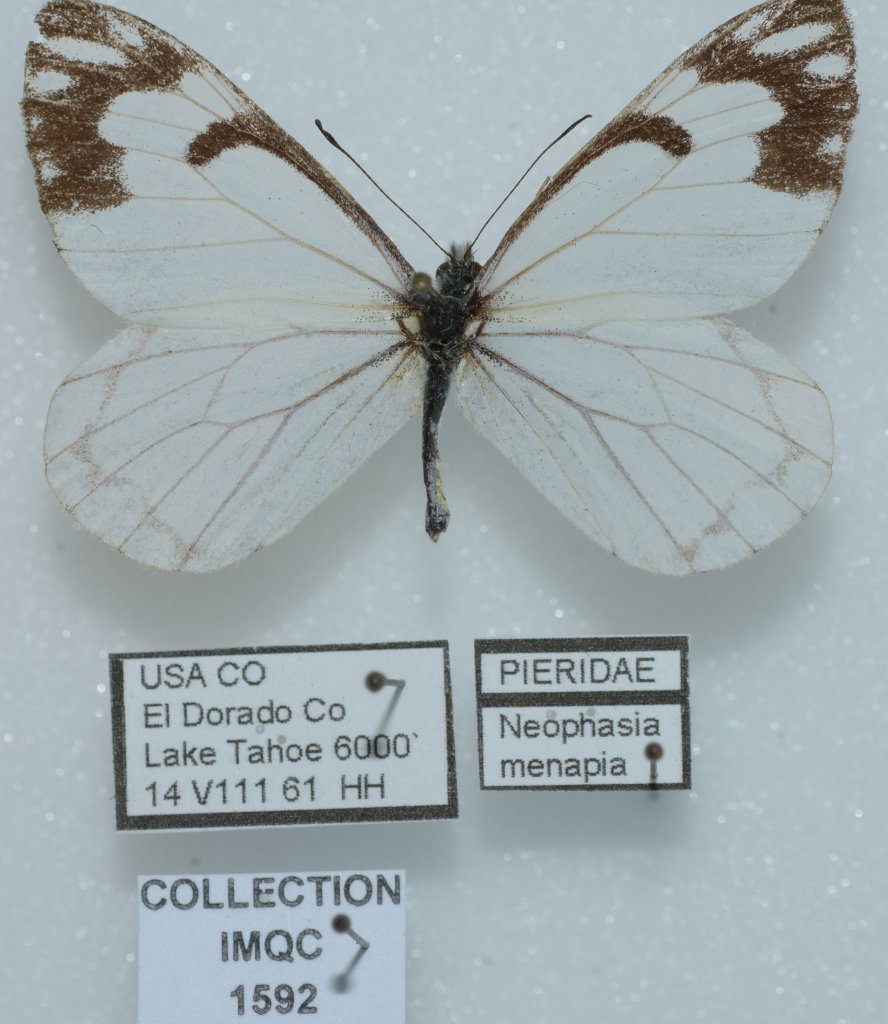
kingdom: Animalia
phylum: Arthropoda
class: Insecta
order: Lepidoptera
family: Pieridae
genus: Neophasia
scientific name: Neophasia menapia
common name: Pine White
